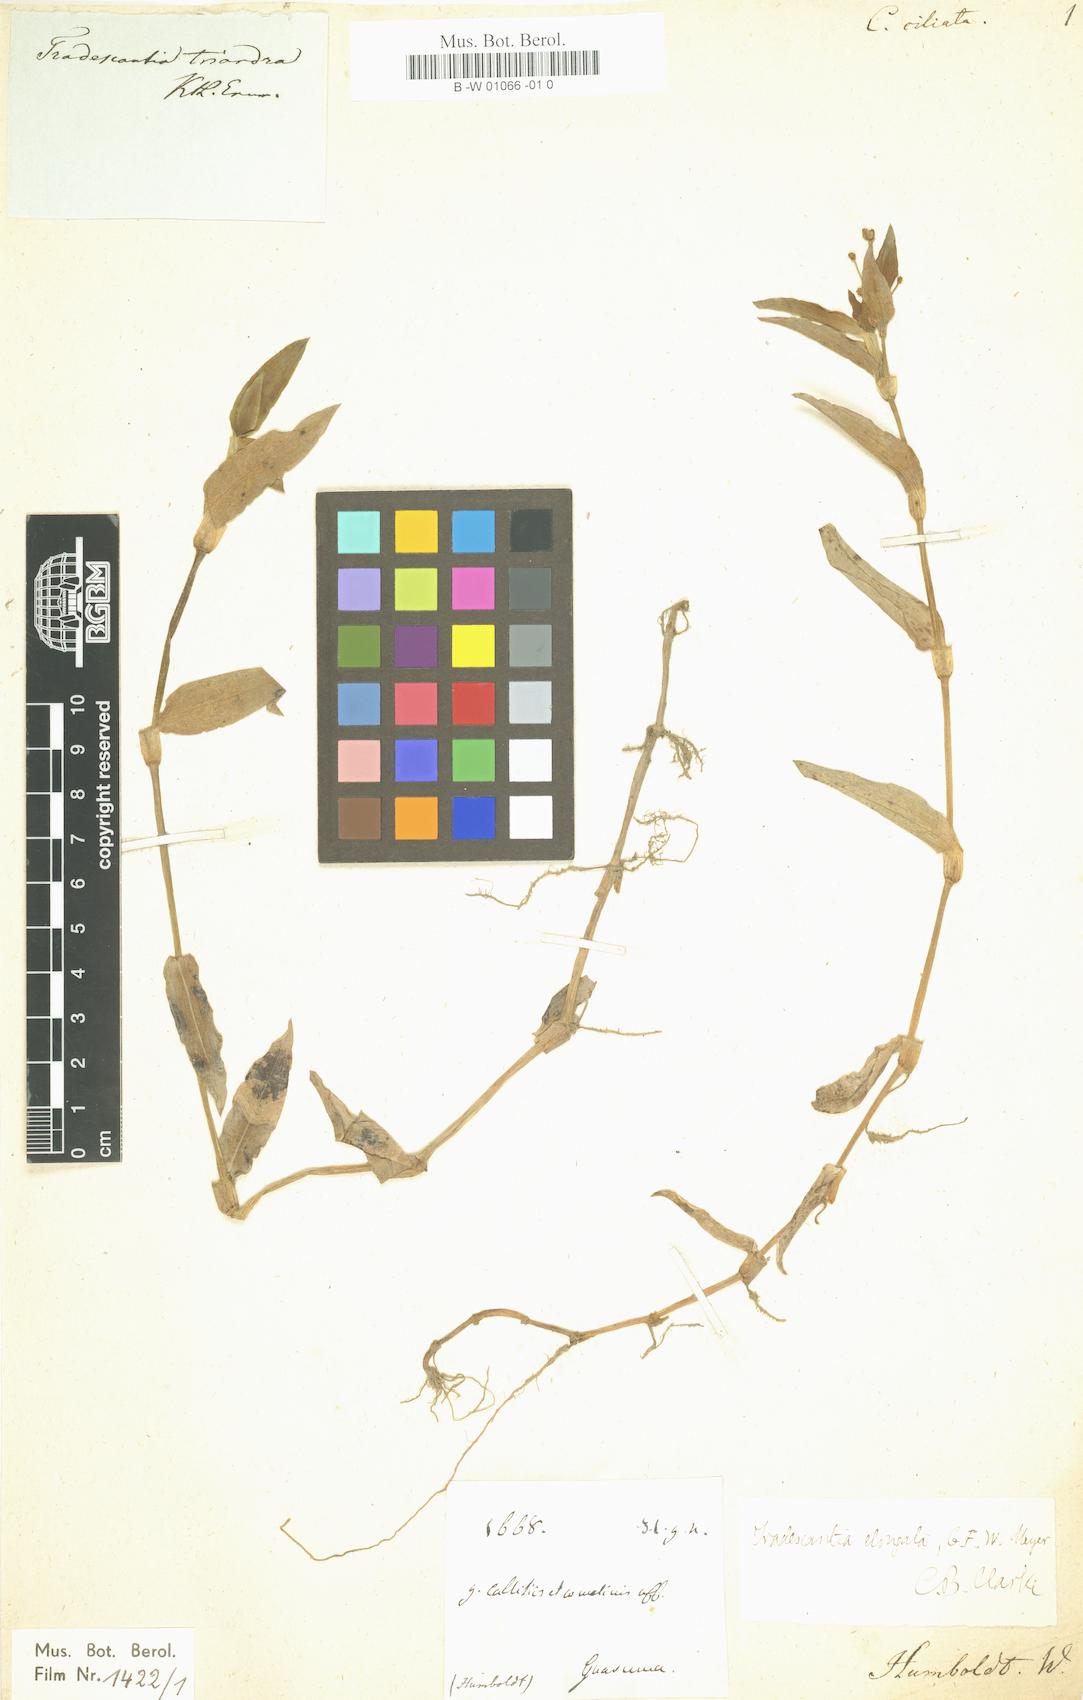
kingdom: Plantae
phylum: Tracheophyta
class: Liliopsida
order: Commelinales
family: Commelinaceae
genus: Callisia
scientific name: Callisia ciliata
